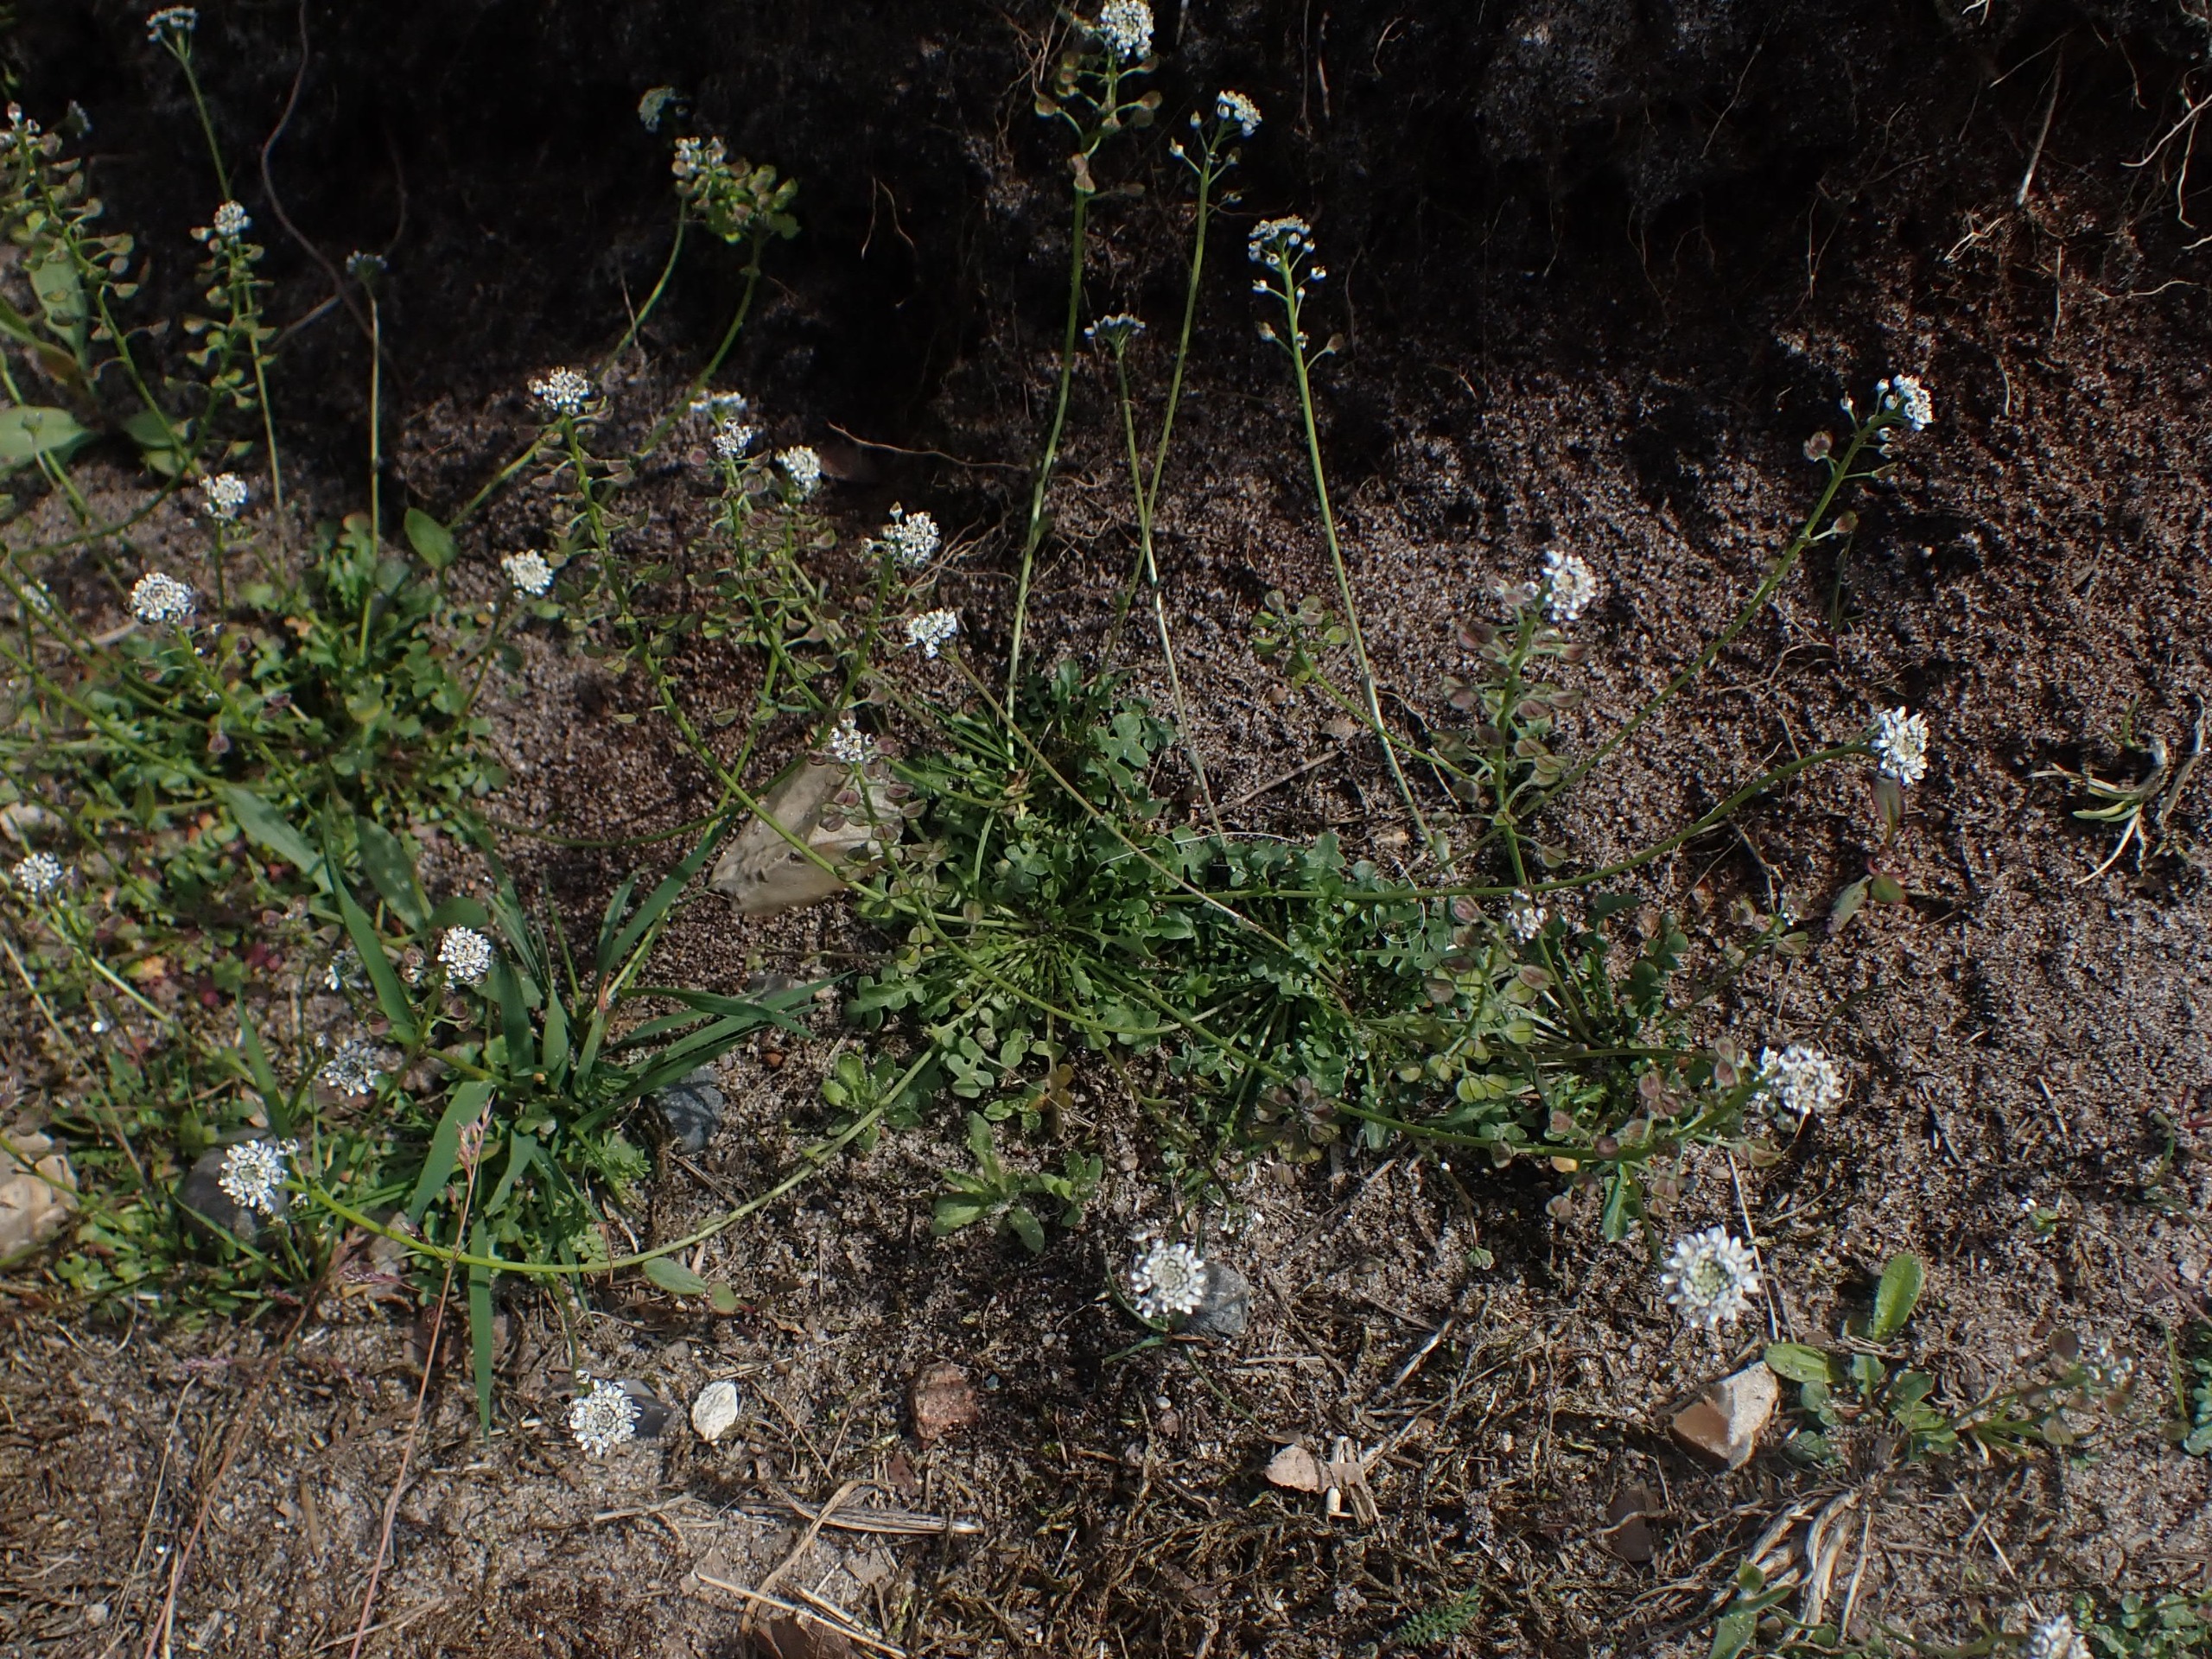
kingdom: Plantae
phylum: Tracheophyta
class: Magnoliopsida
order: Brassicales
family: Brassicaceae
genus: Teesdalia
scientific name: Teesdalia nudicaulis
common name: Flipkrave
